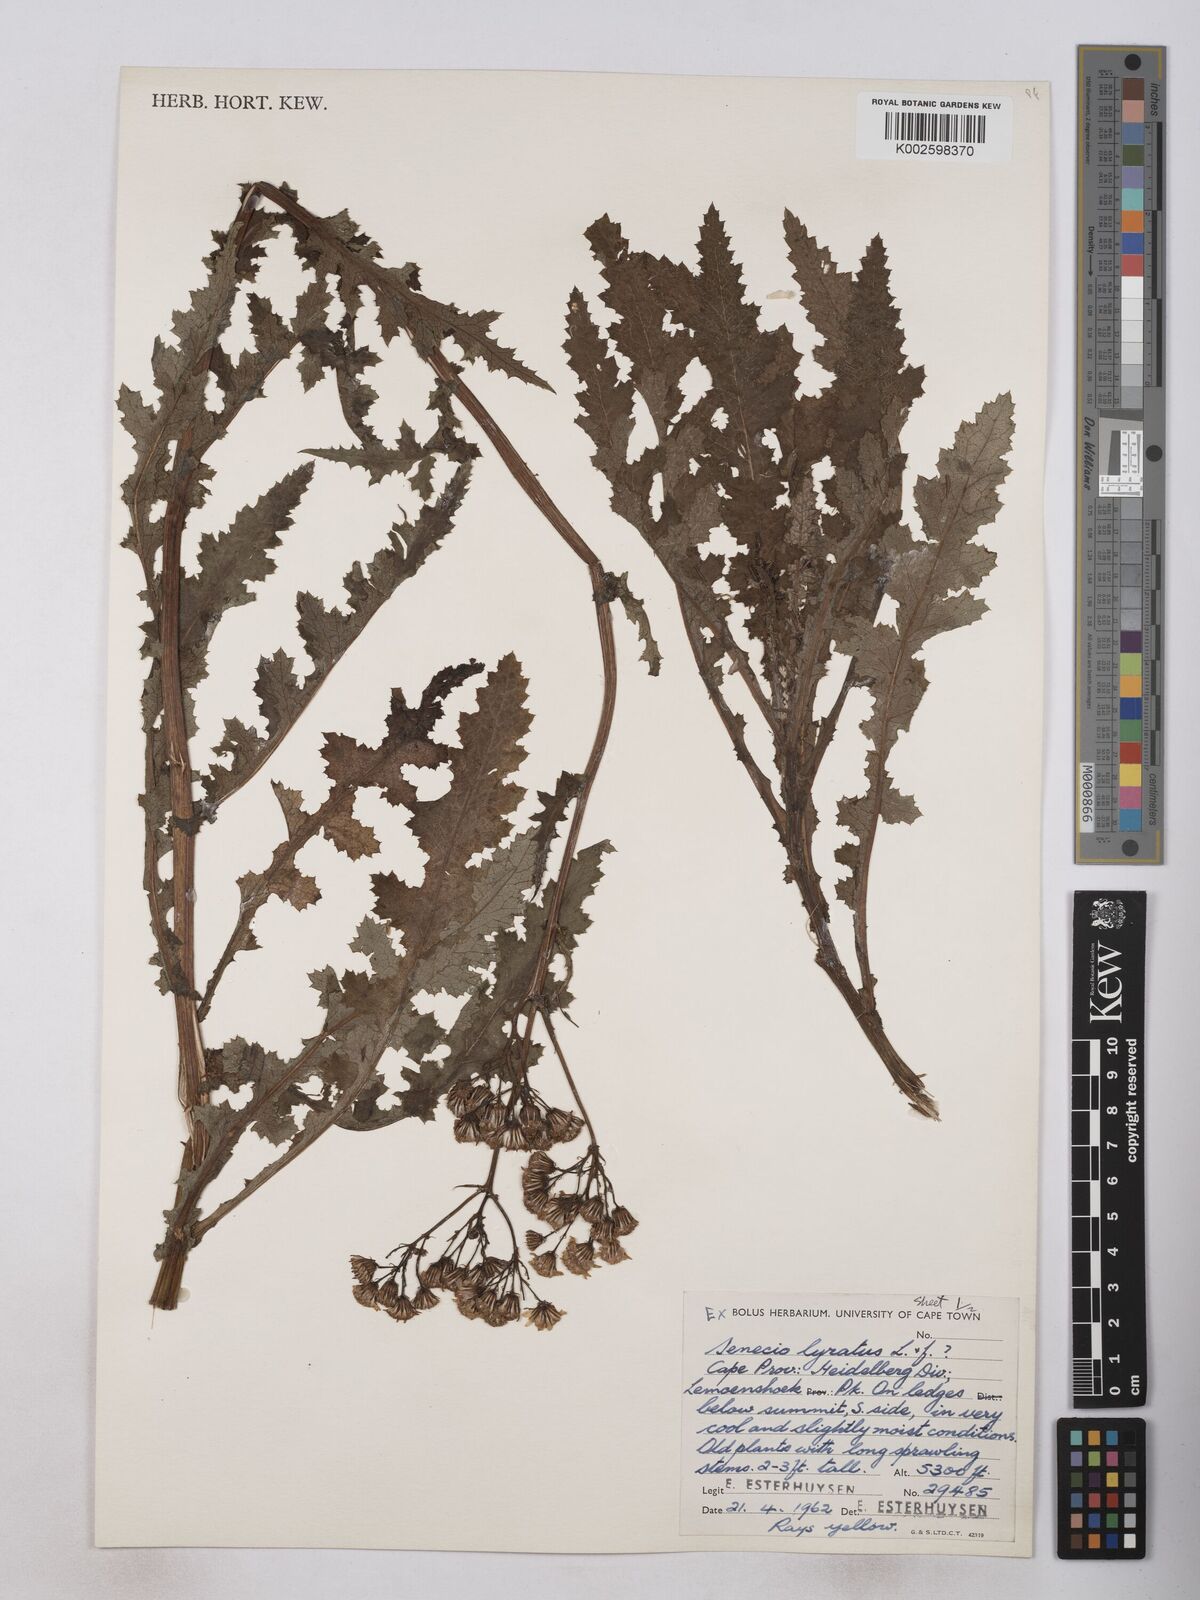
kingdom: Plantae
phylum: Tracheophyta
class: Magnoliopsida
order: Asterales
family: Asteraceae
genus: Senecio
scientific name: Senecio anapetes
